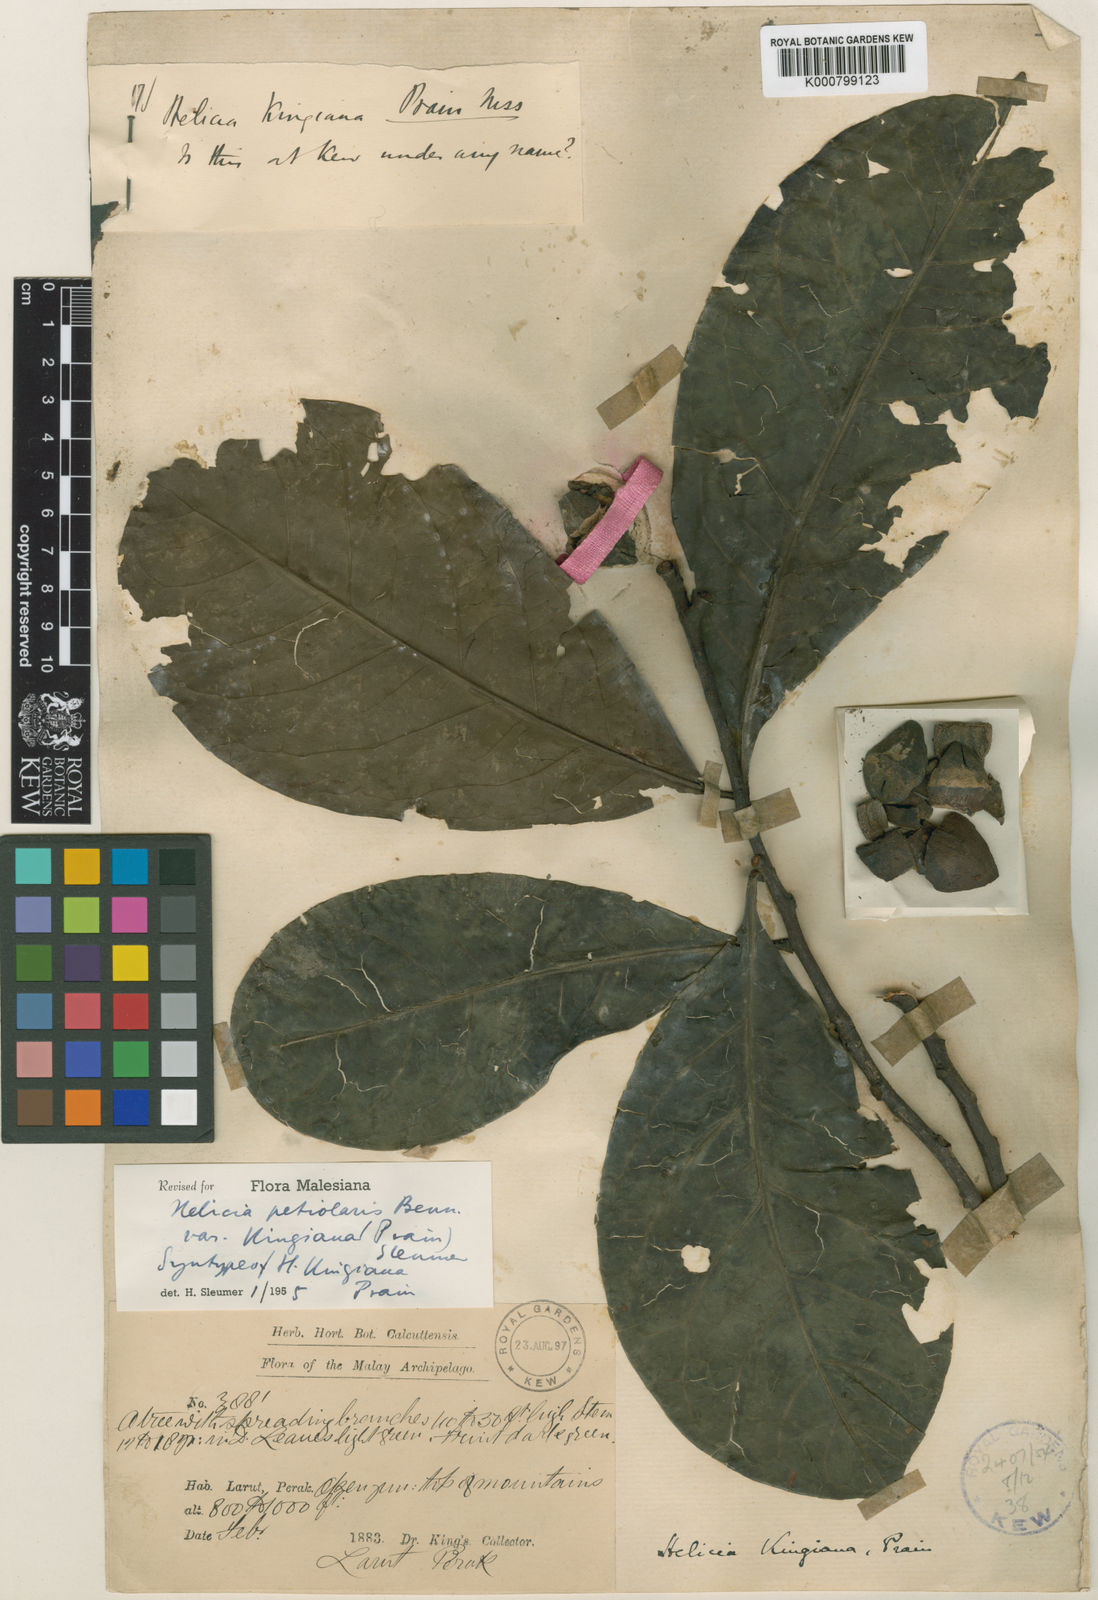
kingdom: Plantae
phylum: Tracheophyta
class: Magnoliopsida
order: Proteales
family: Proteaceae
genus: Helicia
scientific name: Helicia petiolaris
